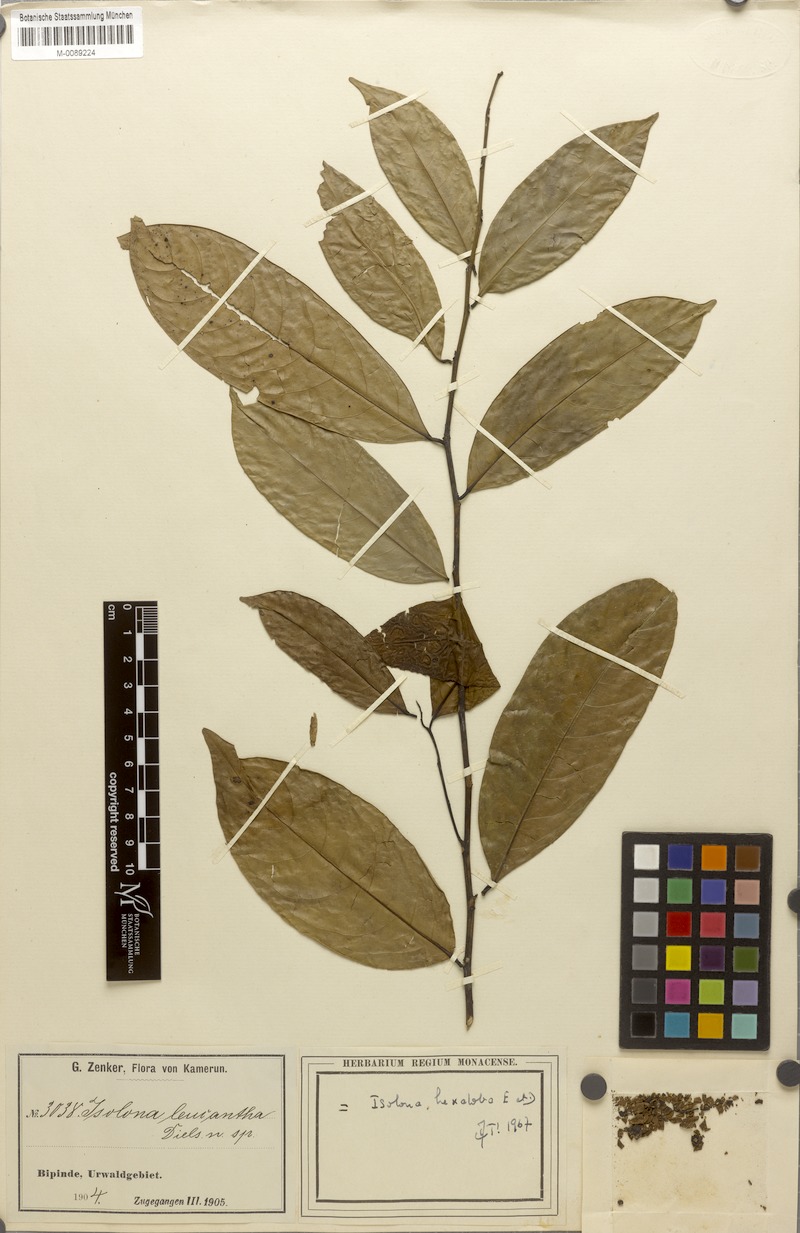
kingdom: Plantae
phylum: Tracheophyta
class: Magnoliopsida
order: Magnoliales
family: Annonaceae
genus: Isolona
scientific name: Isolona hexaloba
